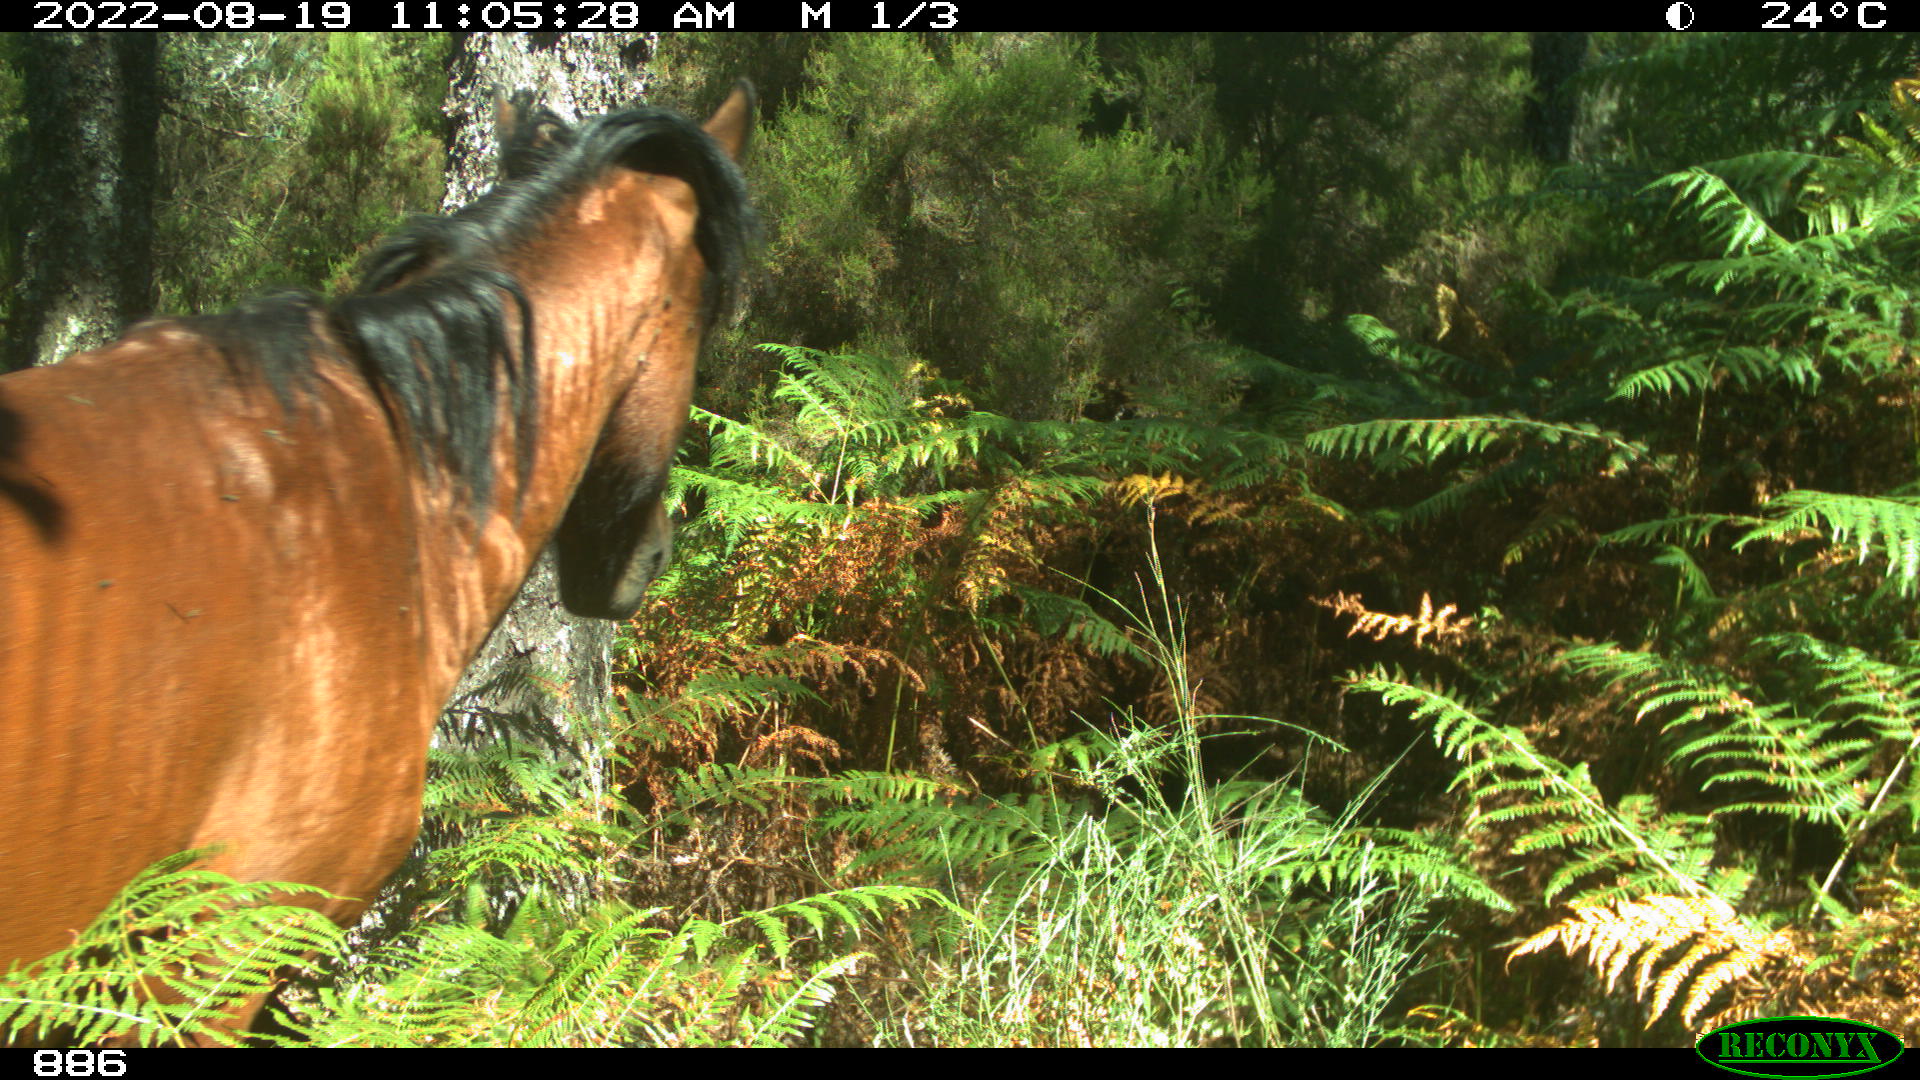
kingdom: Animalia
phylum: Chordata
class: Mammalia
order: Perissodactyla
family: Equidae
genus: Equus
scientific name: Equus caballus
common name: Horse
